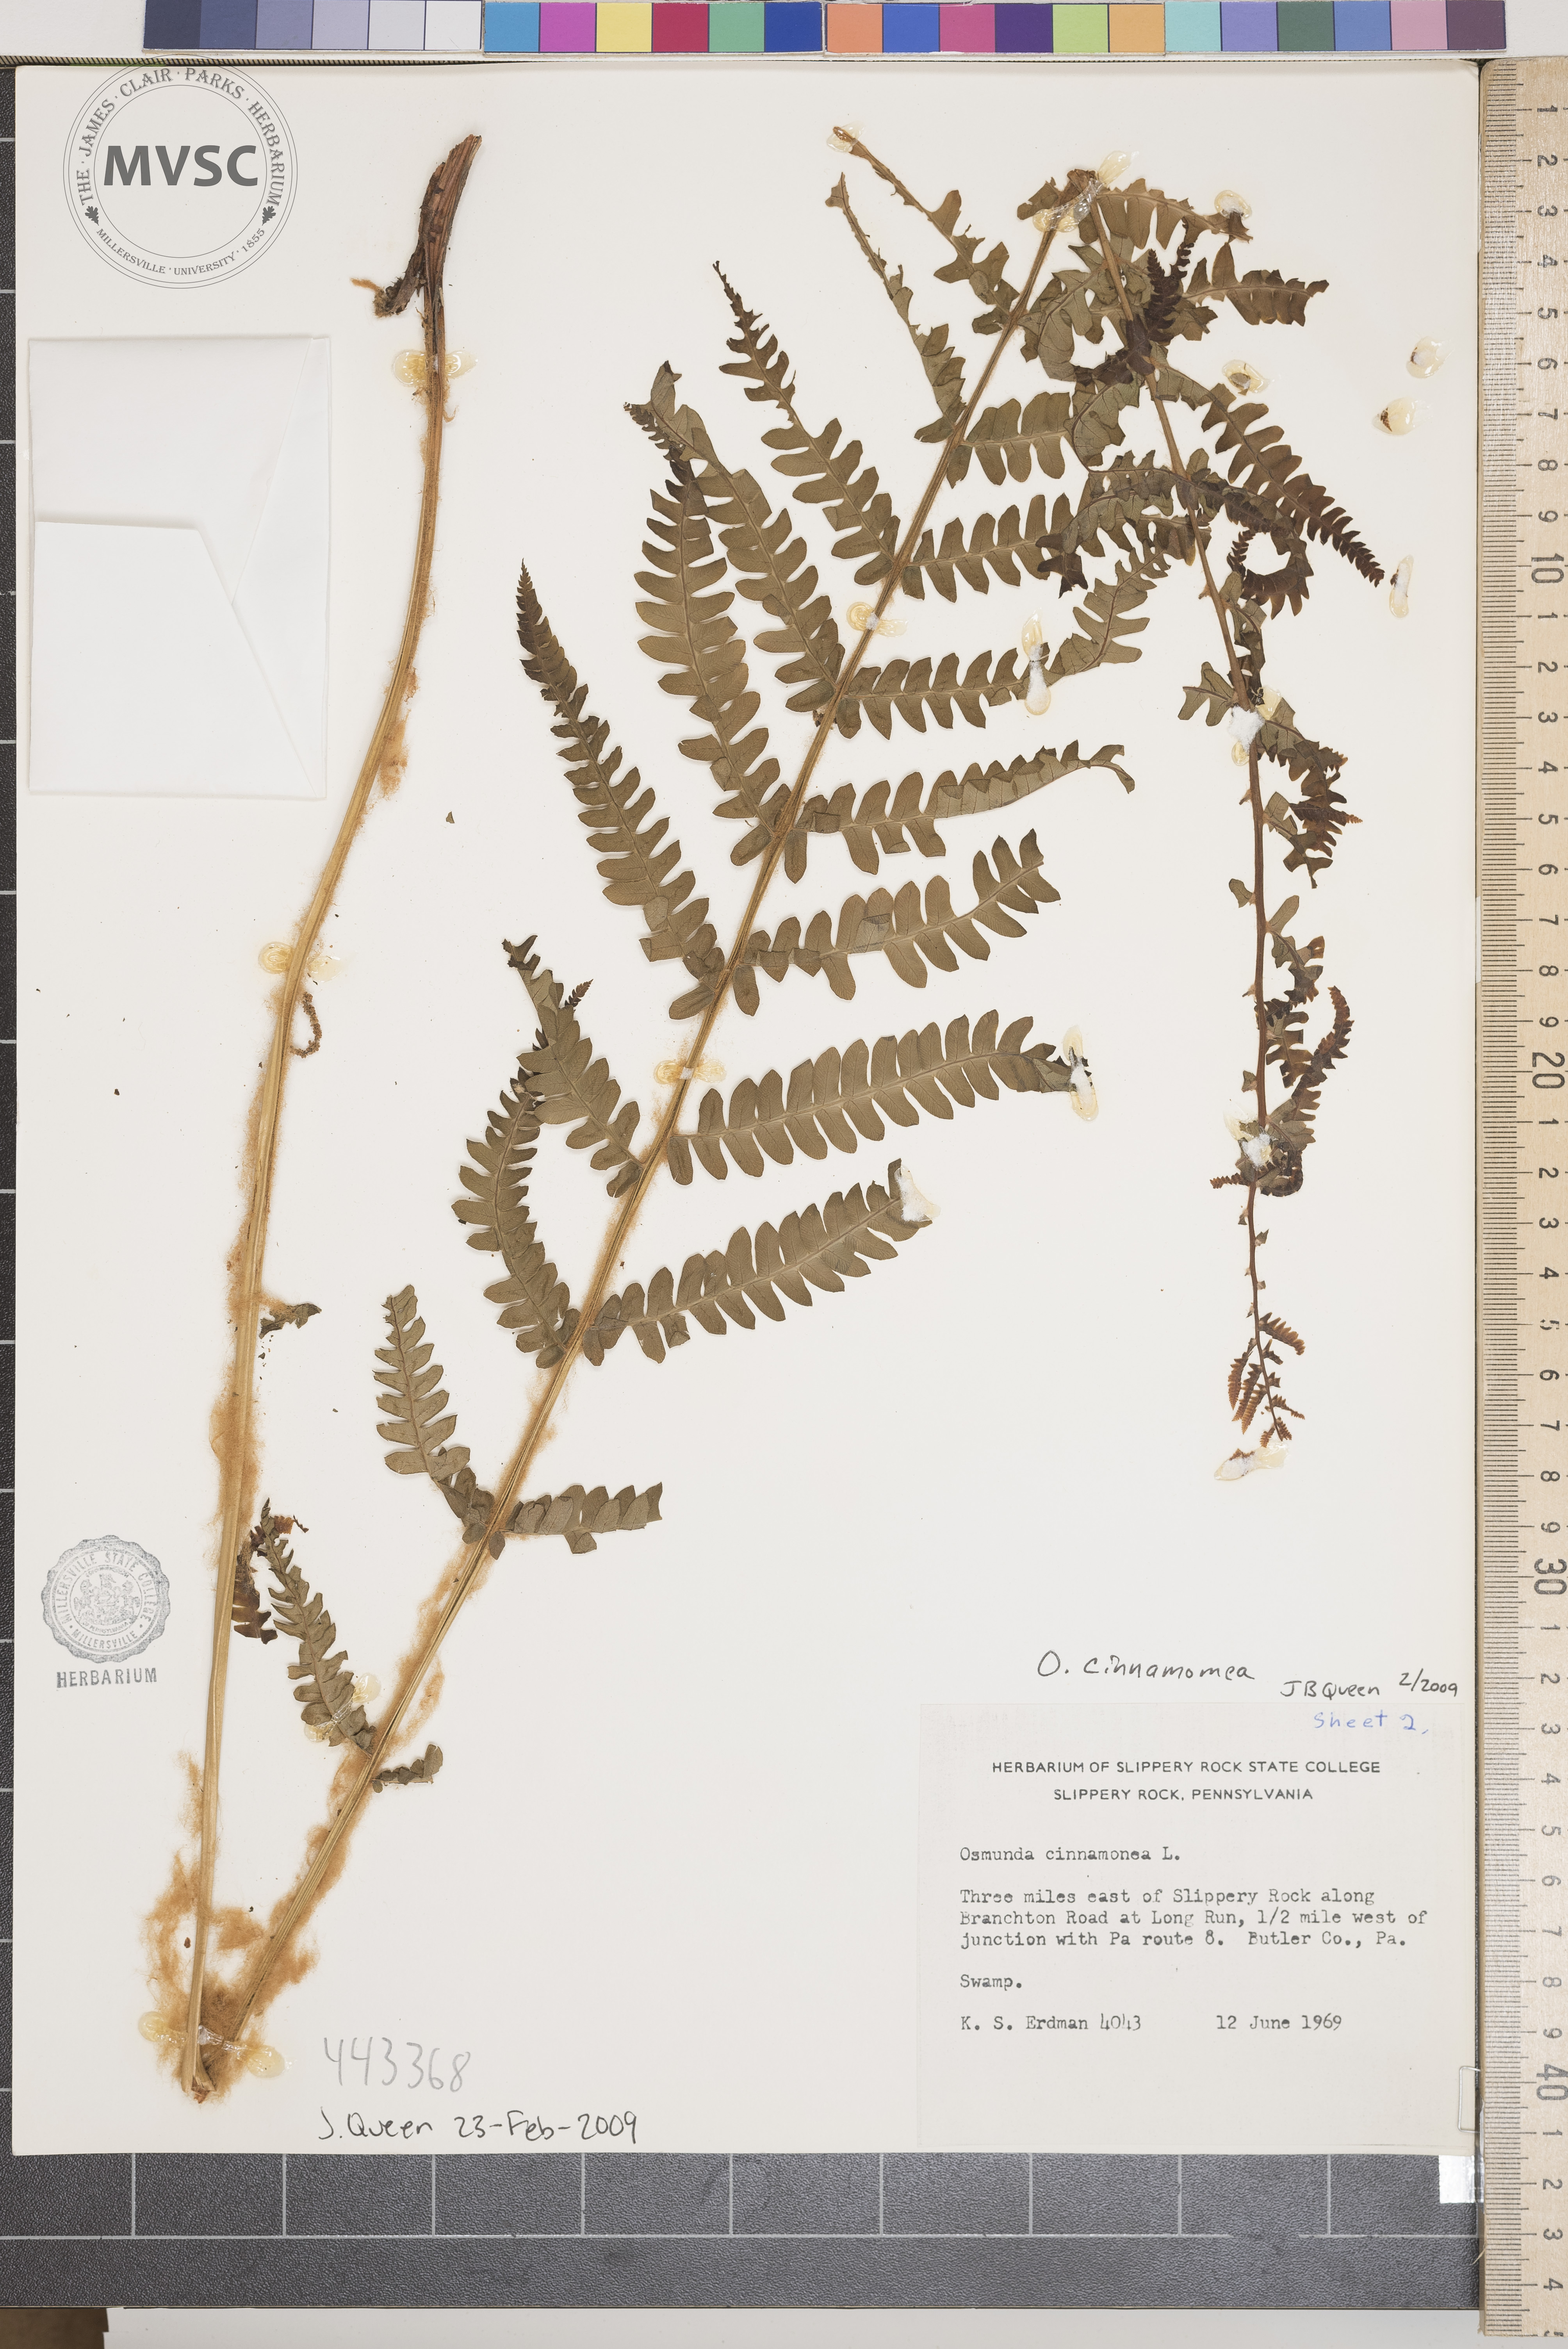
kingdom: Plantae
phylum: Tracheophyta
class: Polypodiopsida
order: Osmundales
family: Osmundaceae
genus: Osmundastrum
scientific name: Osmundastrum cinnamomeum
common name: Cinnamon fern
